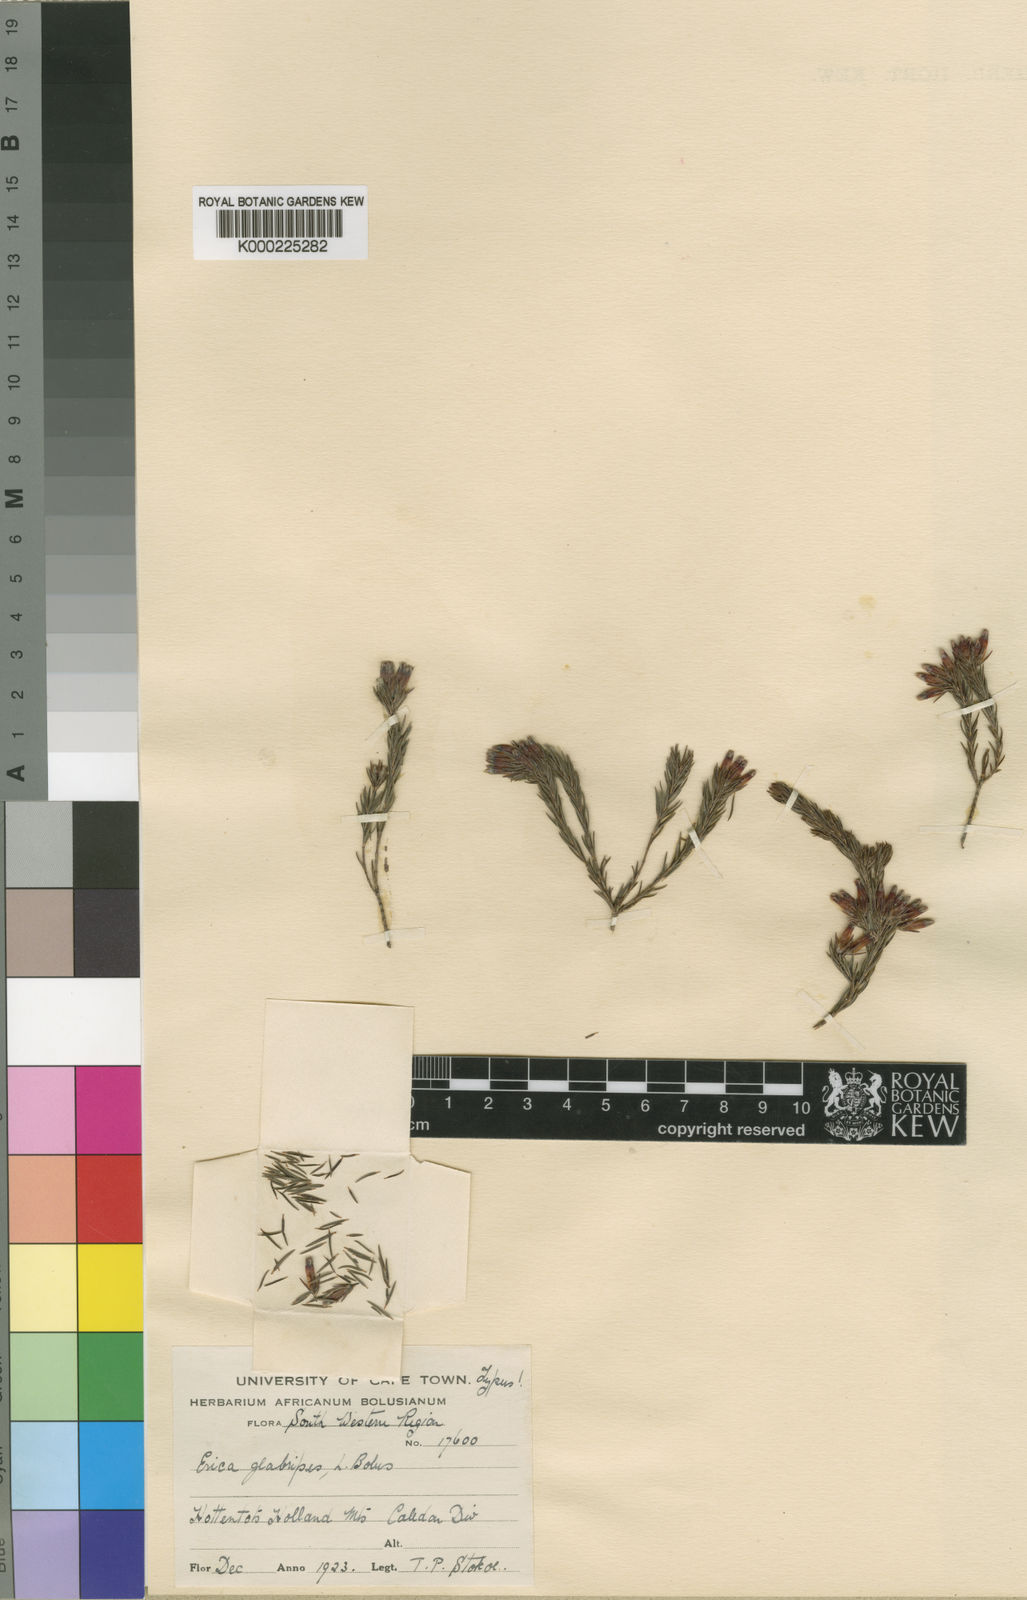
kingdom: Plantae
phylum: Tracheophyta
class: Magnoliopsida
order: Ericales
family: Ericaceae
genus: Erica
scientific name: Erica glabripes
